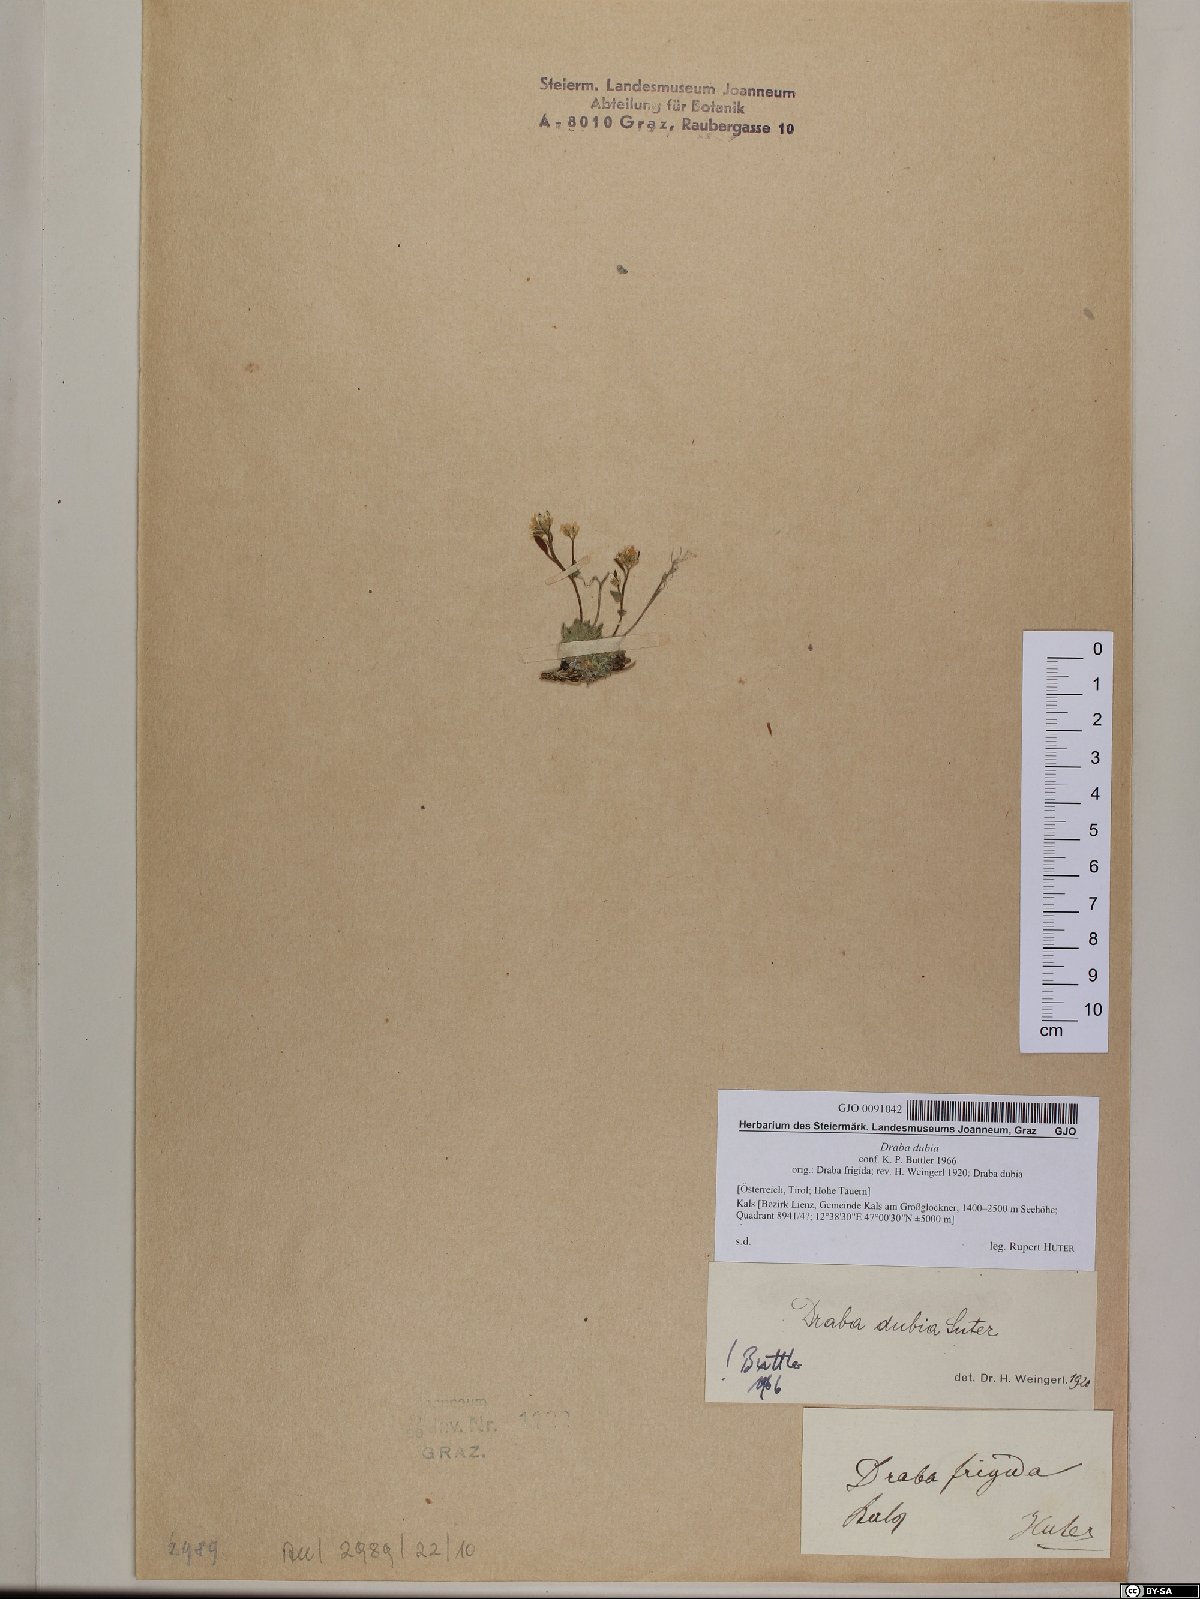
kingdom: Plantae
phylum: Tracheophyta
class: Magnoliopsida
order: Brassicales
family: Brassicaceae
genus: Draba
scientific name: Draba dubia
